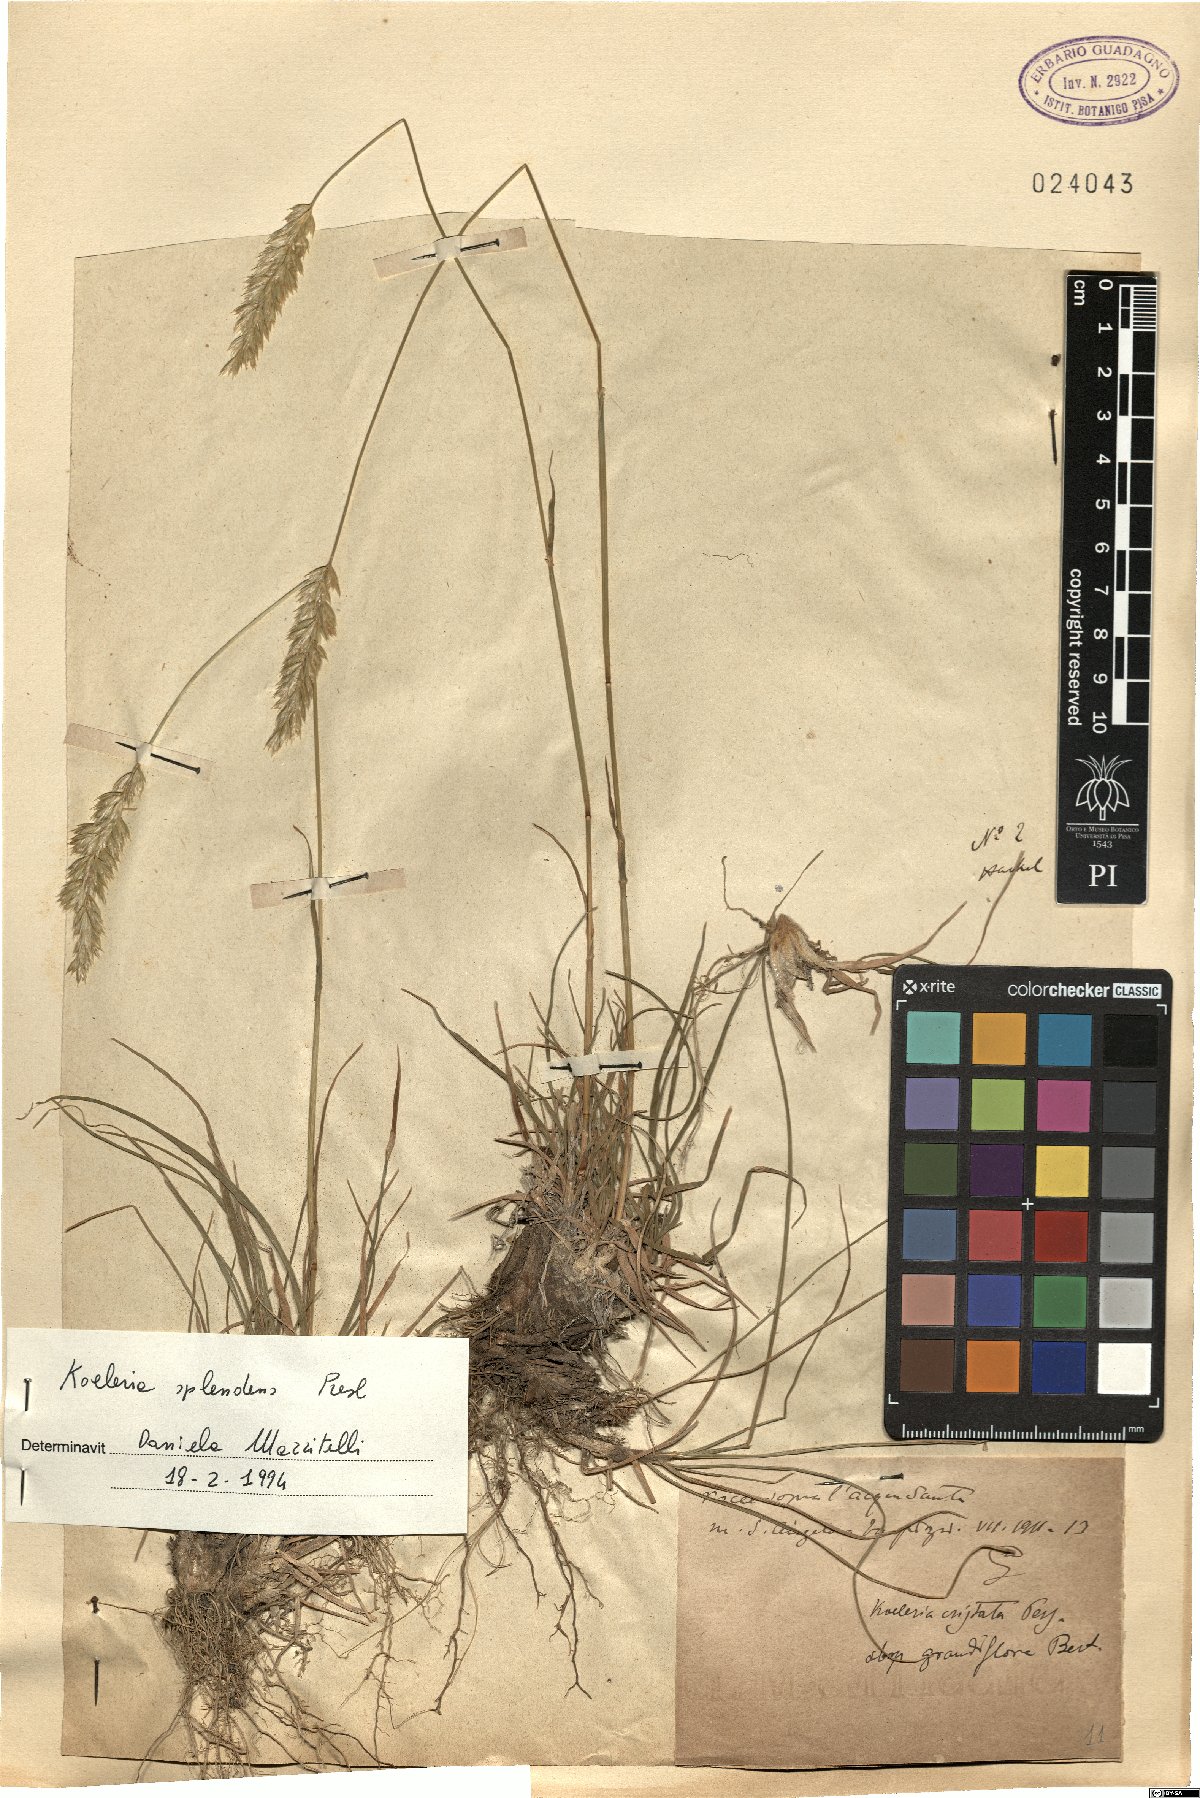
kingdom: Plantae
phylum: Tracheophyta
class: Liliopsida
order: Poales
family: Poaceae
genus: Koeleria
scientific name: Koeleria splendens
